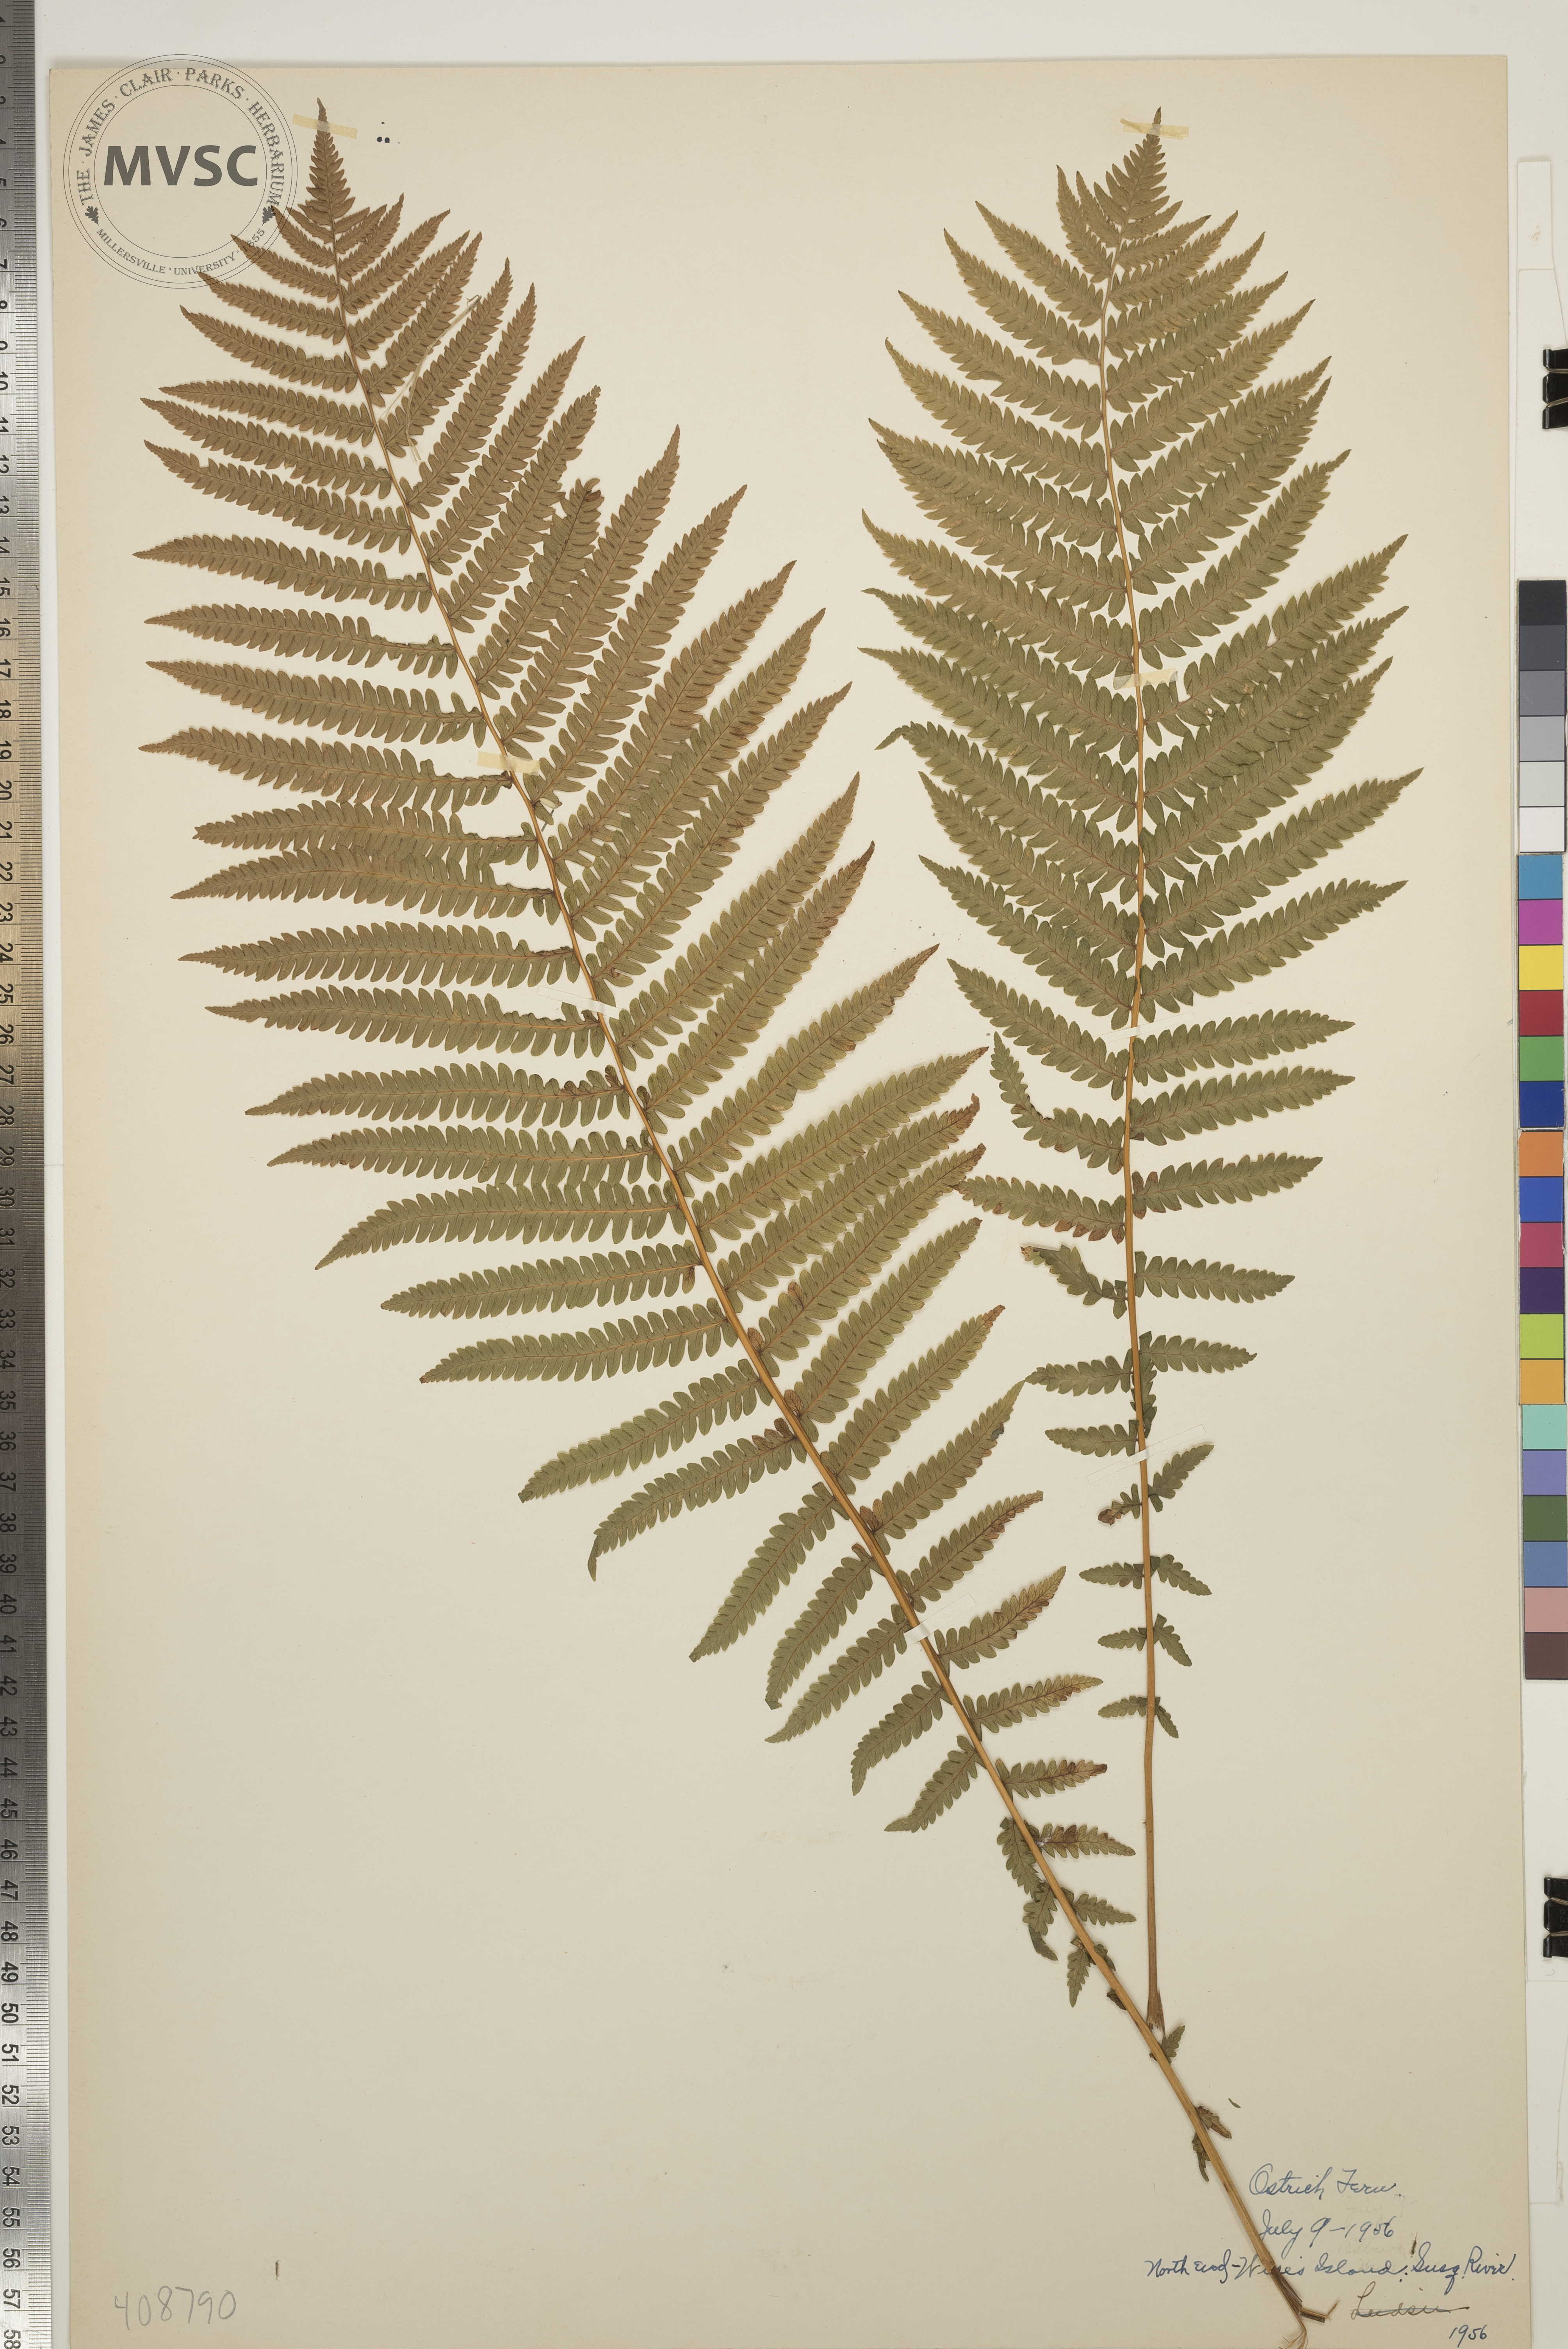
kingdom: Plantae
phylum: Tracheophyta
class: Polypodiopsida
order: Polypodiales
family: Onocleaceae
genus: Matteuccia
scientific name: Matteuccia struthiopteris
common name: Ostrich Fern
